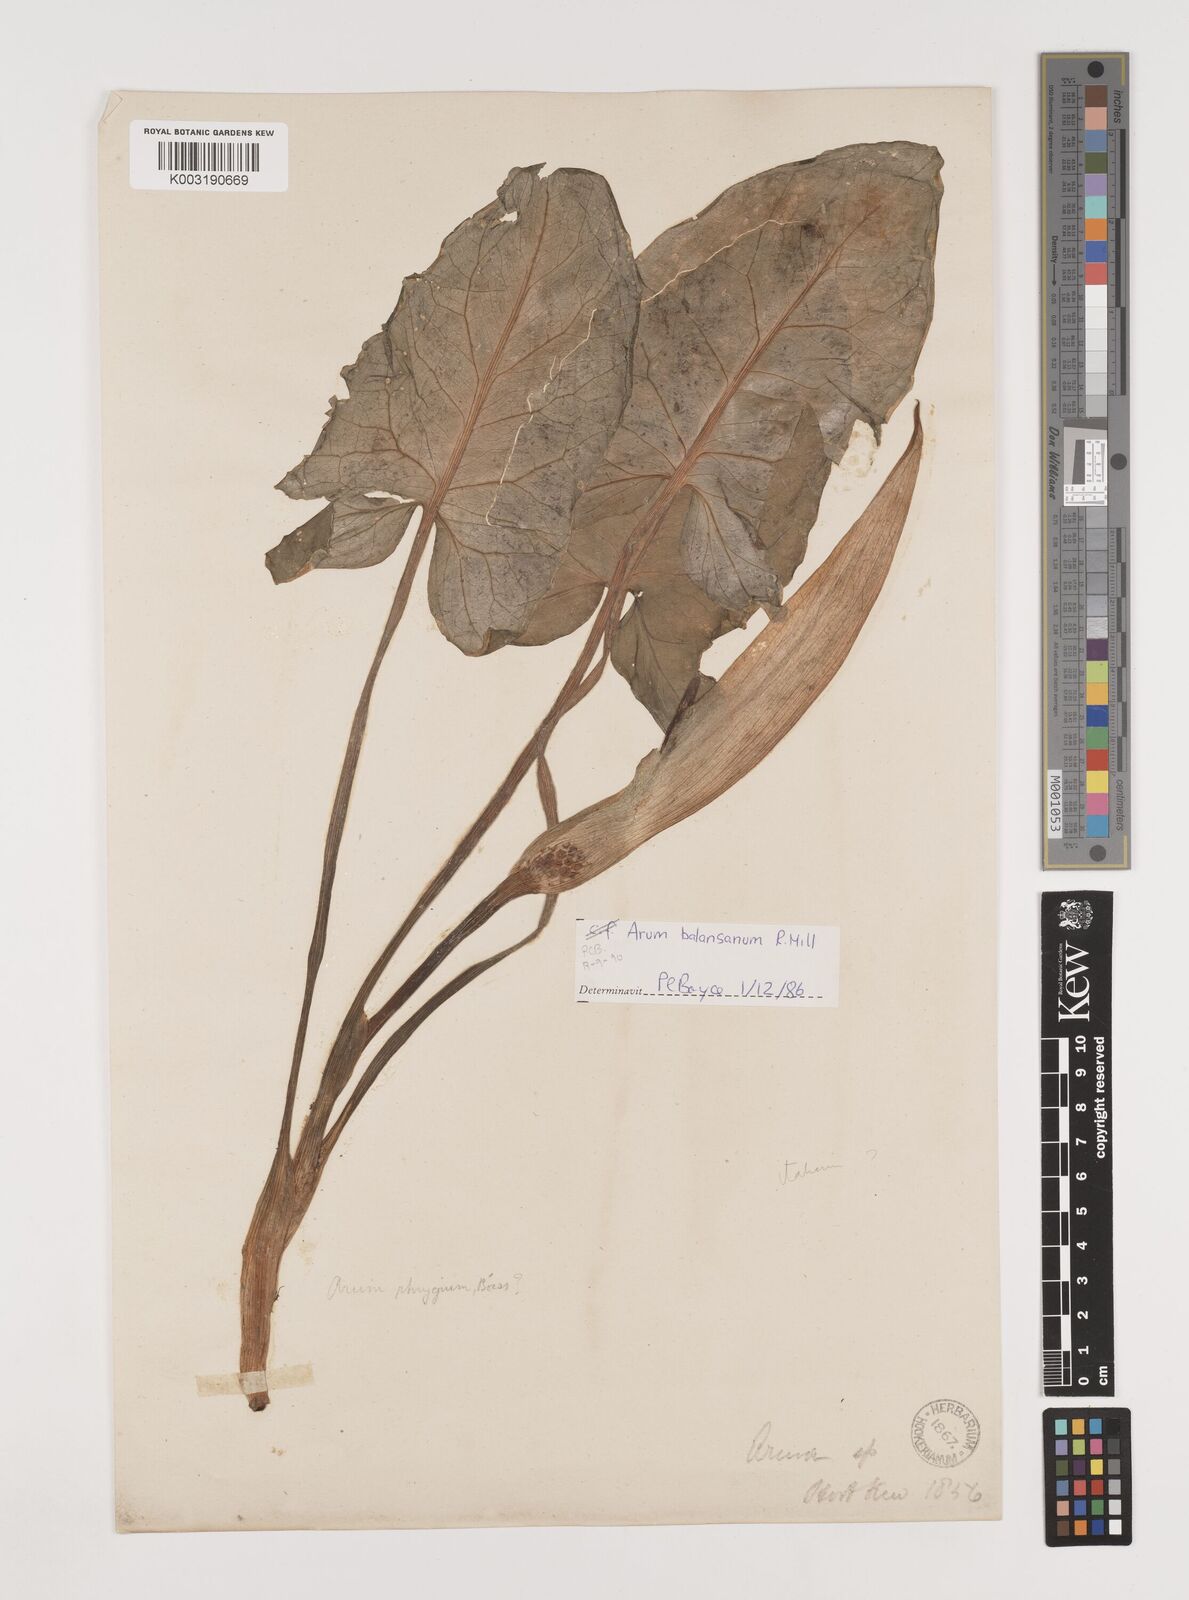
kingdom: Plantae
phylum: Tracheophyta
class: Liliopsida
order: Alismatales
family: Araceae
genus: Arum
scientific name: Arum orientale
